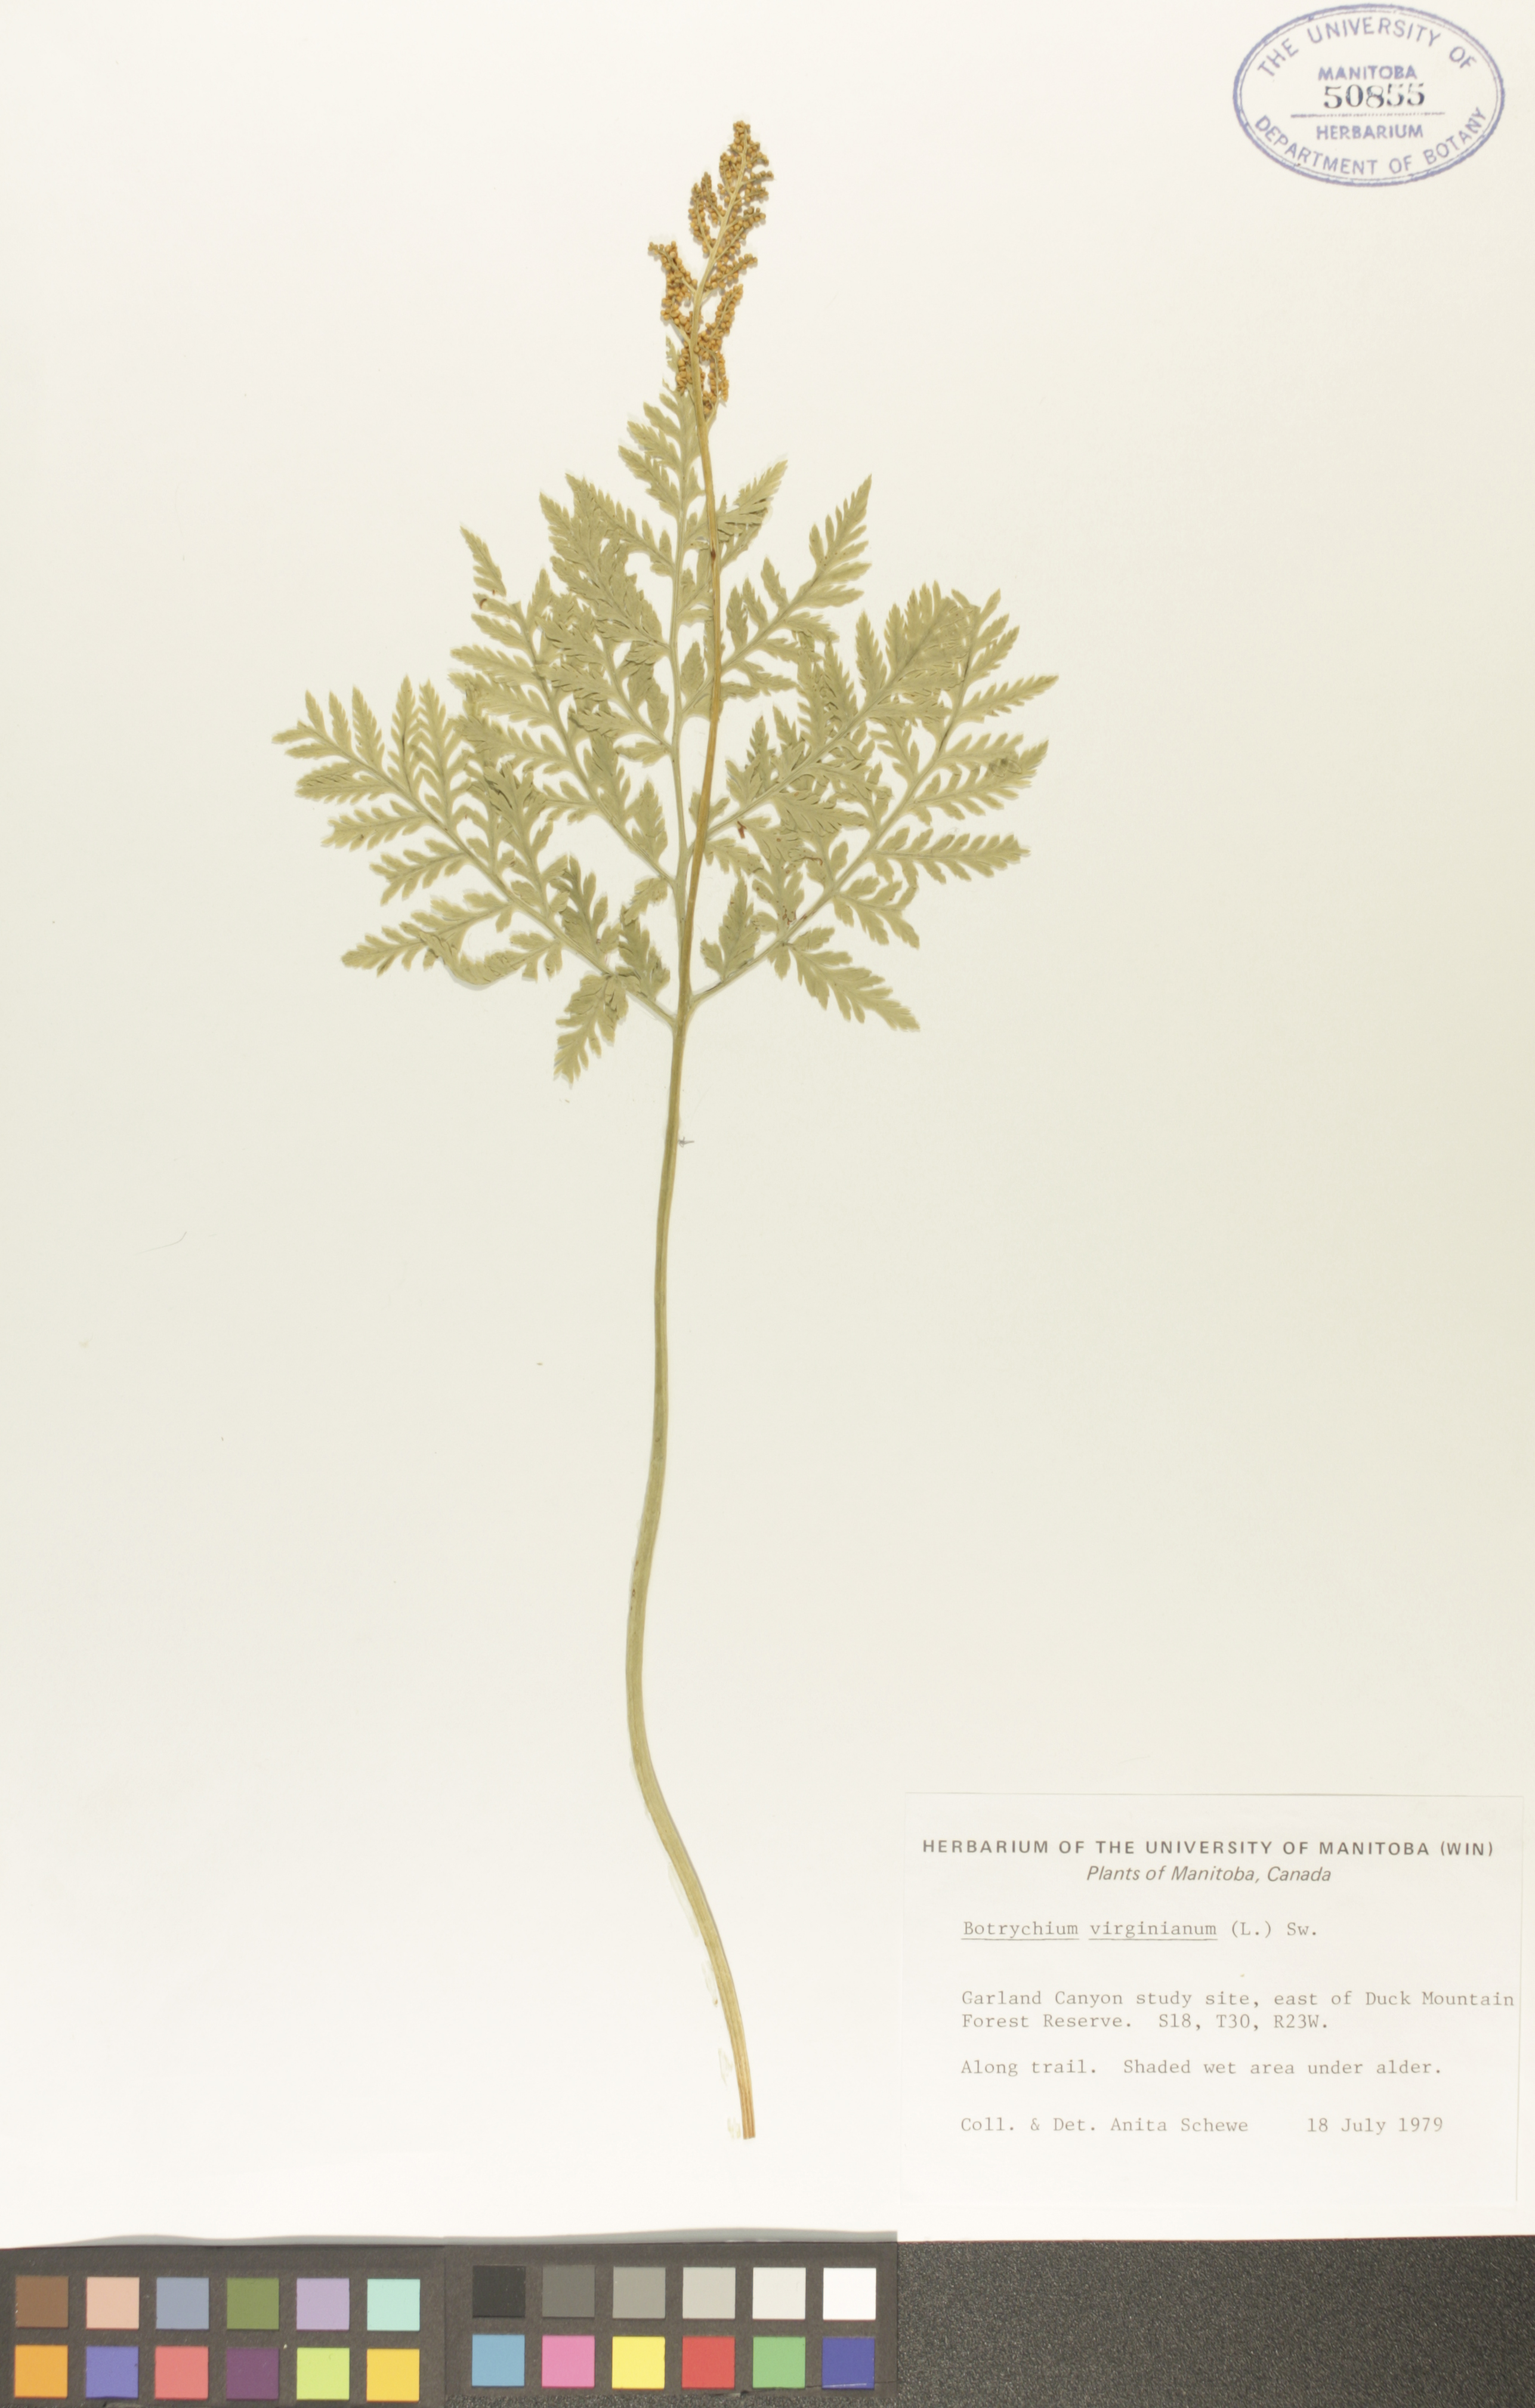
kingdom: Plantae
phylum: Tracheophyta
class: Polypodiopsida
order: Ophioglossales
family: Ophioglossaceae
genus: Botrypus
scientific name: Botrypus virginianus
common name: Common grapefern
